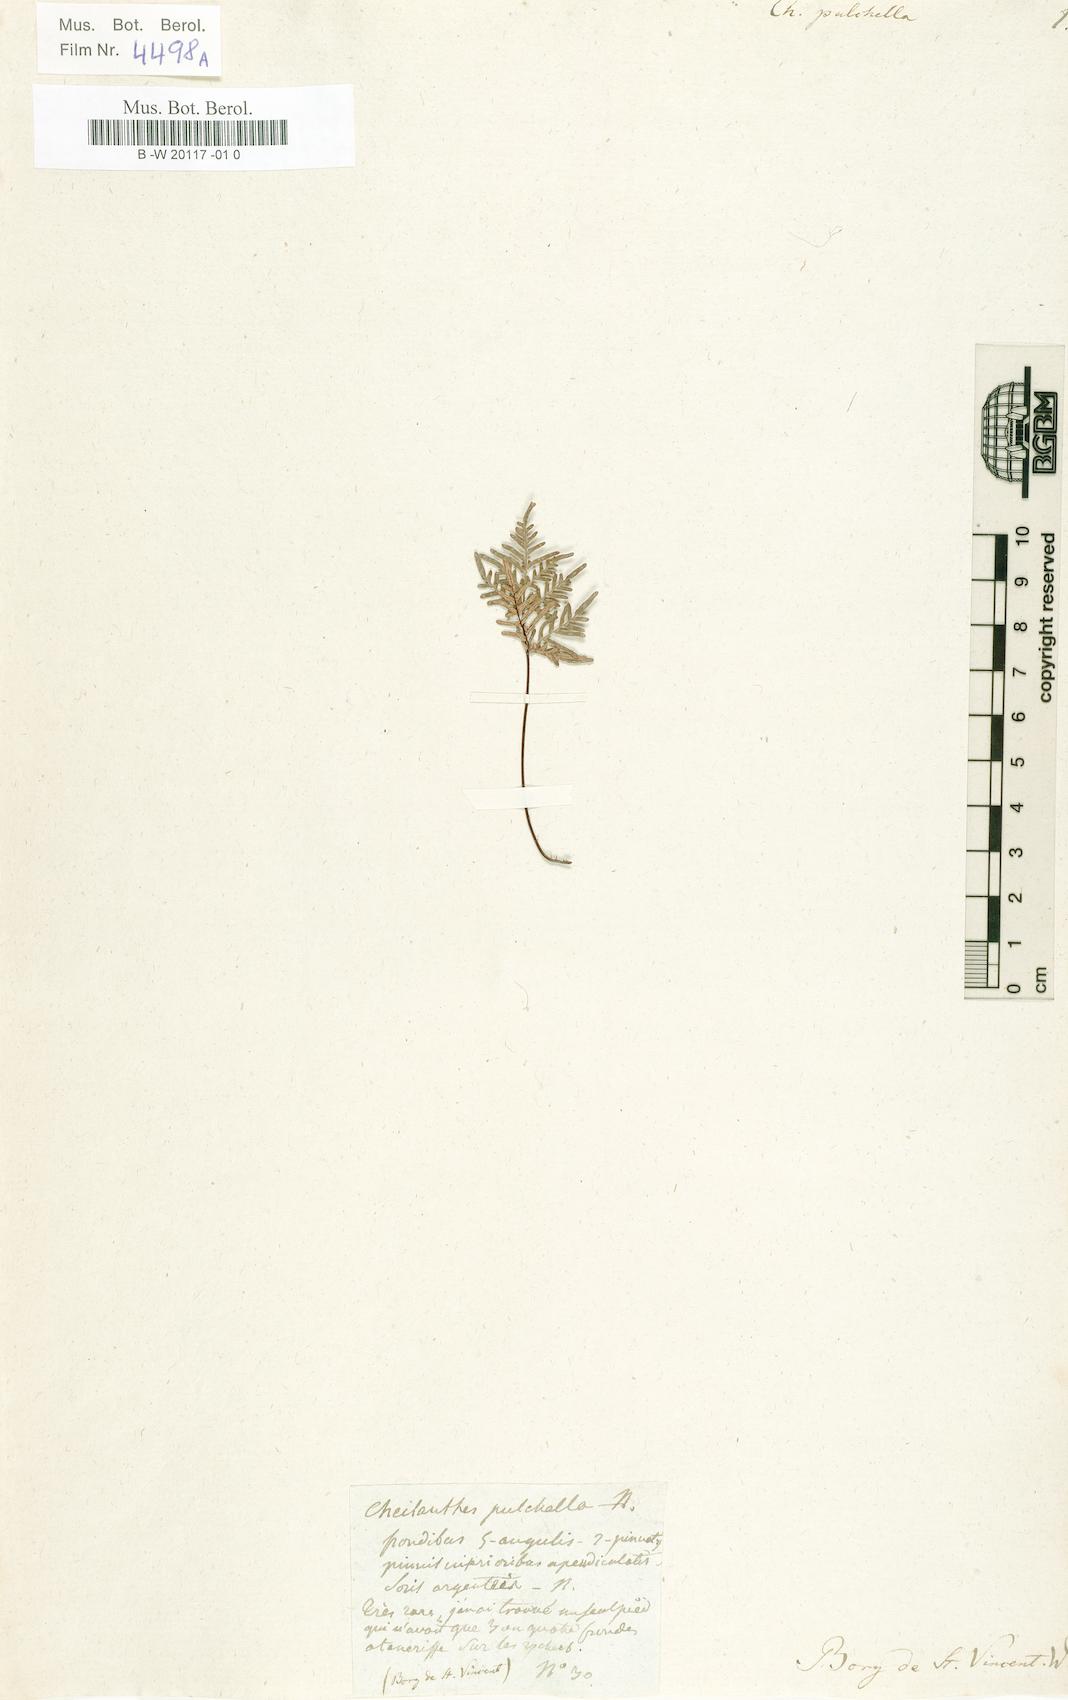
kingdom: Plantae
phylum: Tracheophyta
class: Polypodiopsida
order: Polypodiales
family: Pteridaceae
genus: Cheilanthes
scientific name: Cheilanthes pulchella
